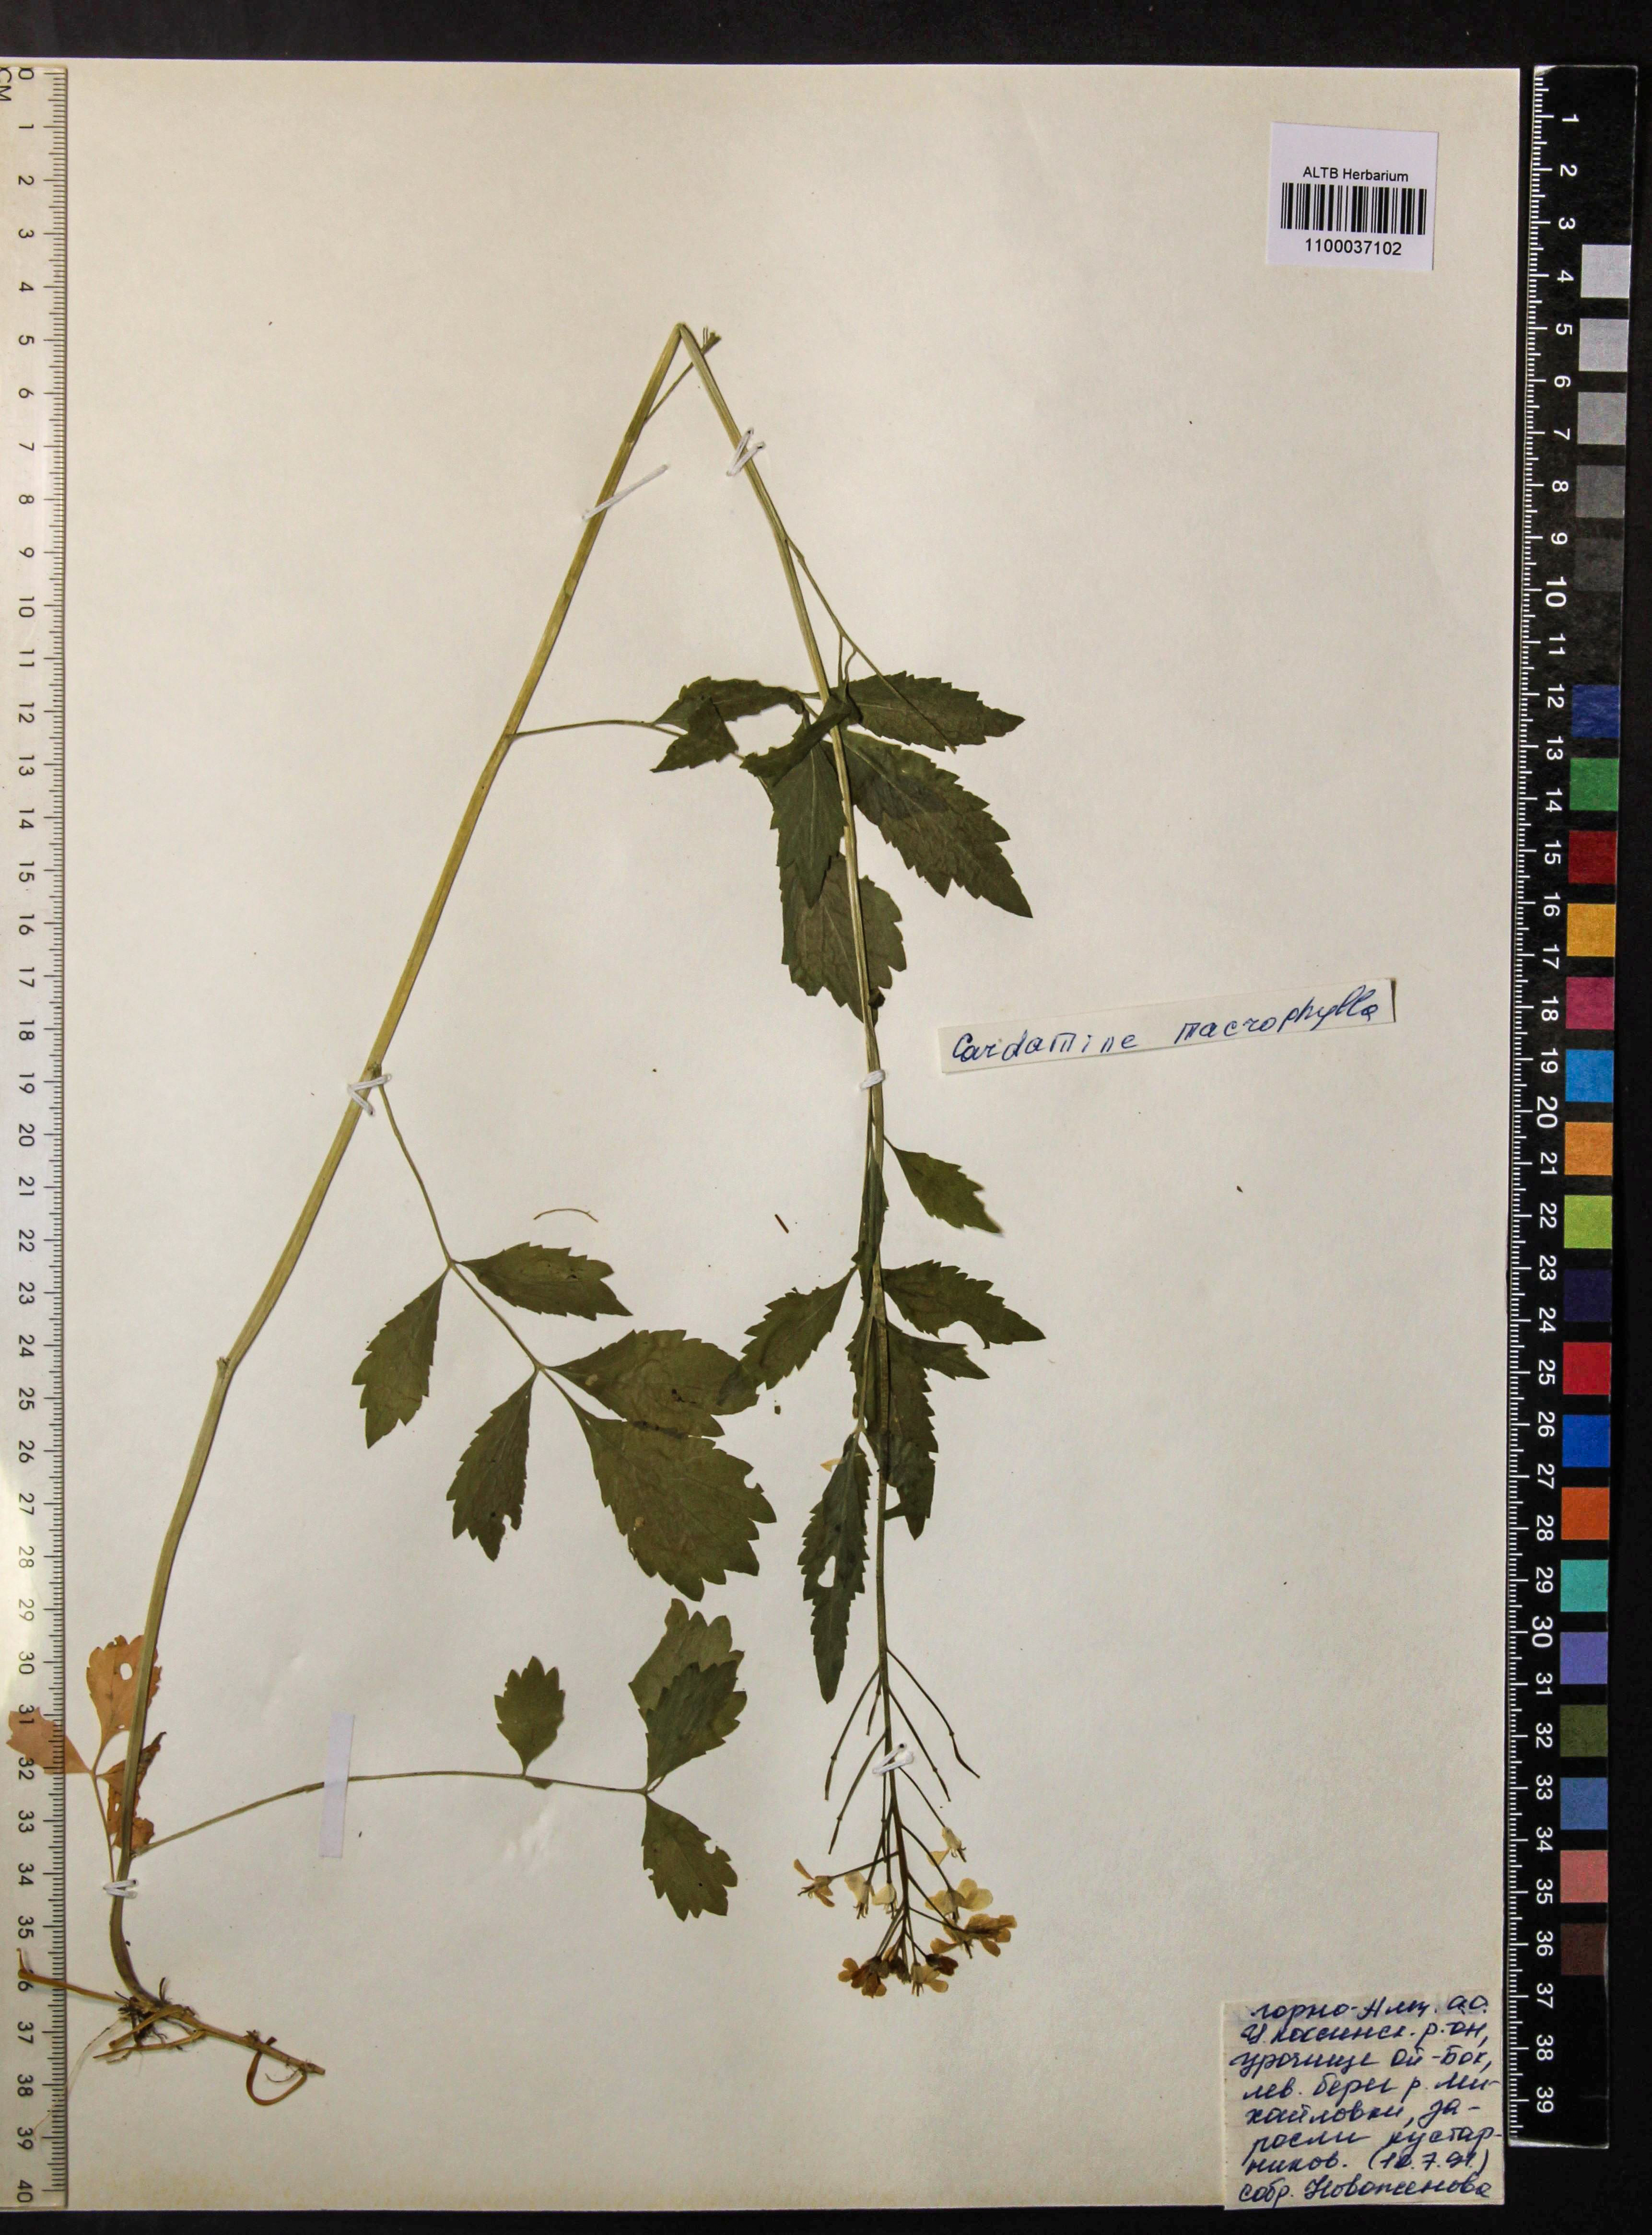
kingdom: Plantae
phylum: Tracheophyta
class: Magnoliopsida
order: Brassicales
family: Brassicaceae
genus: Cardamine
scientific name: Cardamine macrophylla
